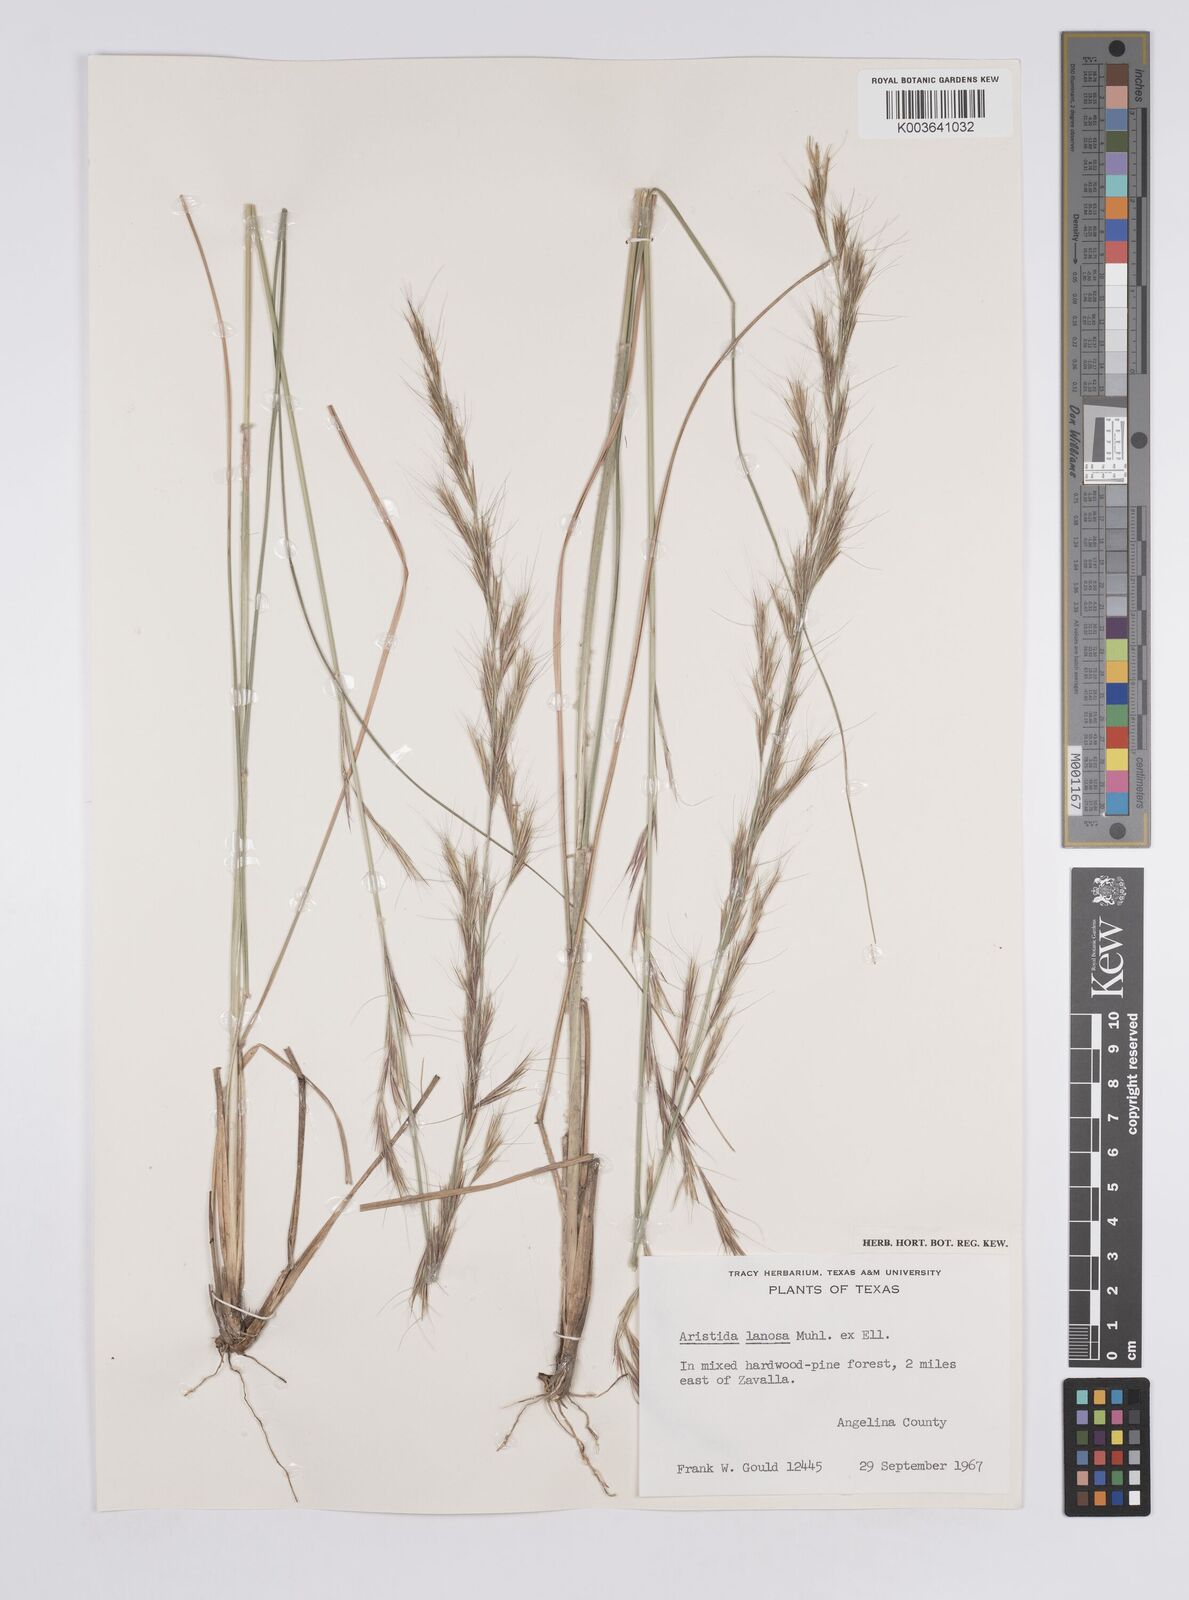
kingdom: Plantae
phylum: Tracheophyta
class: Liliopsida
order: Poales
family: Poaceae
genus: Aristida
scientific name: Aristida lanosa
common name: Woolly three-awn
